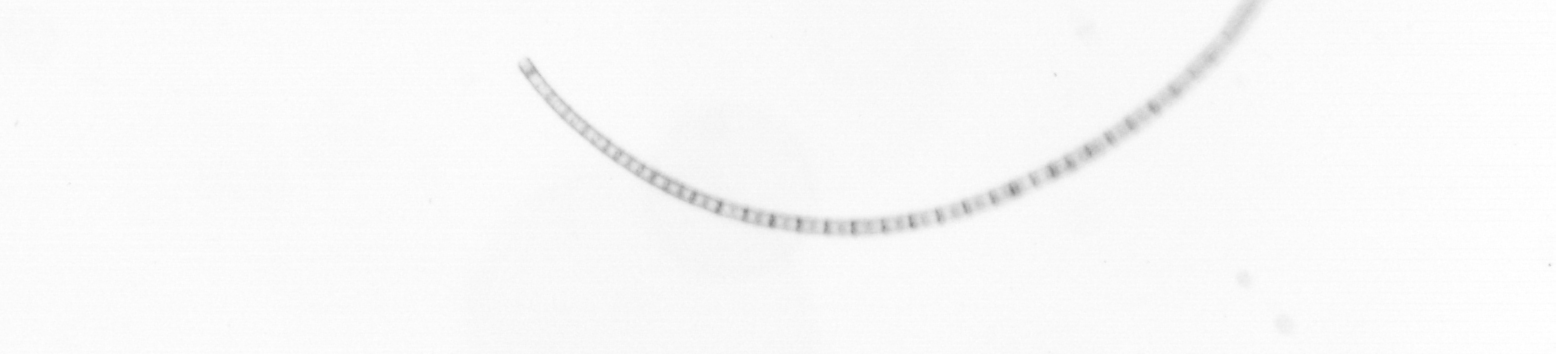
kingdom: Chromista
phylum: Ochrophyta
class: Bacillariophyceae
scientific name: Bacillariophyceae
